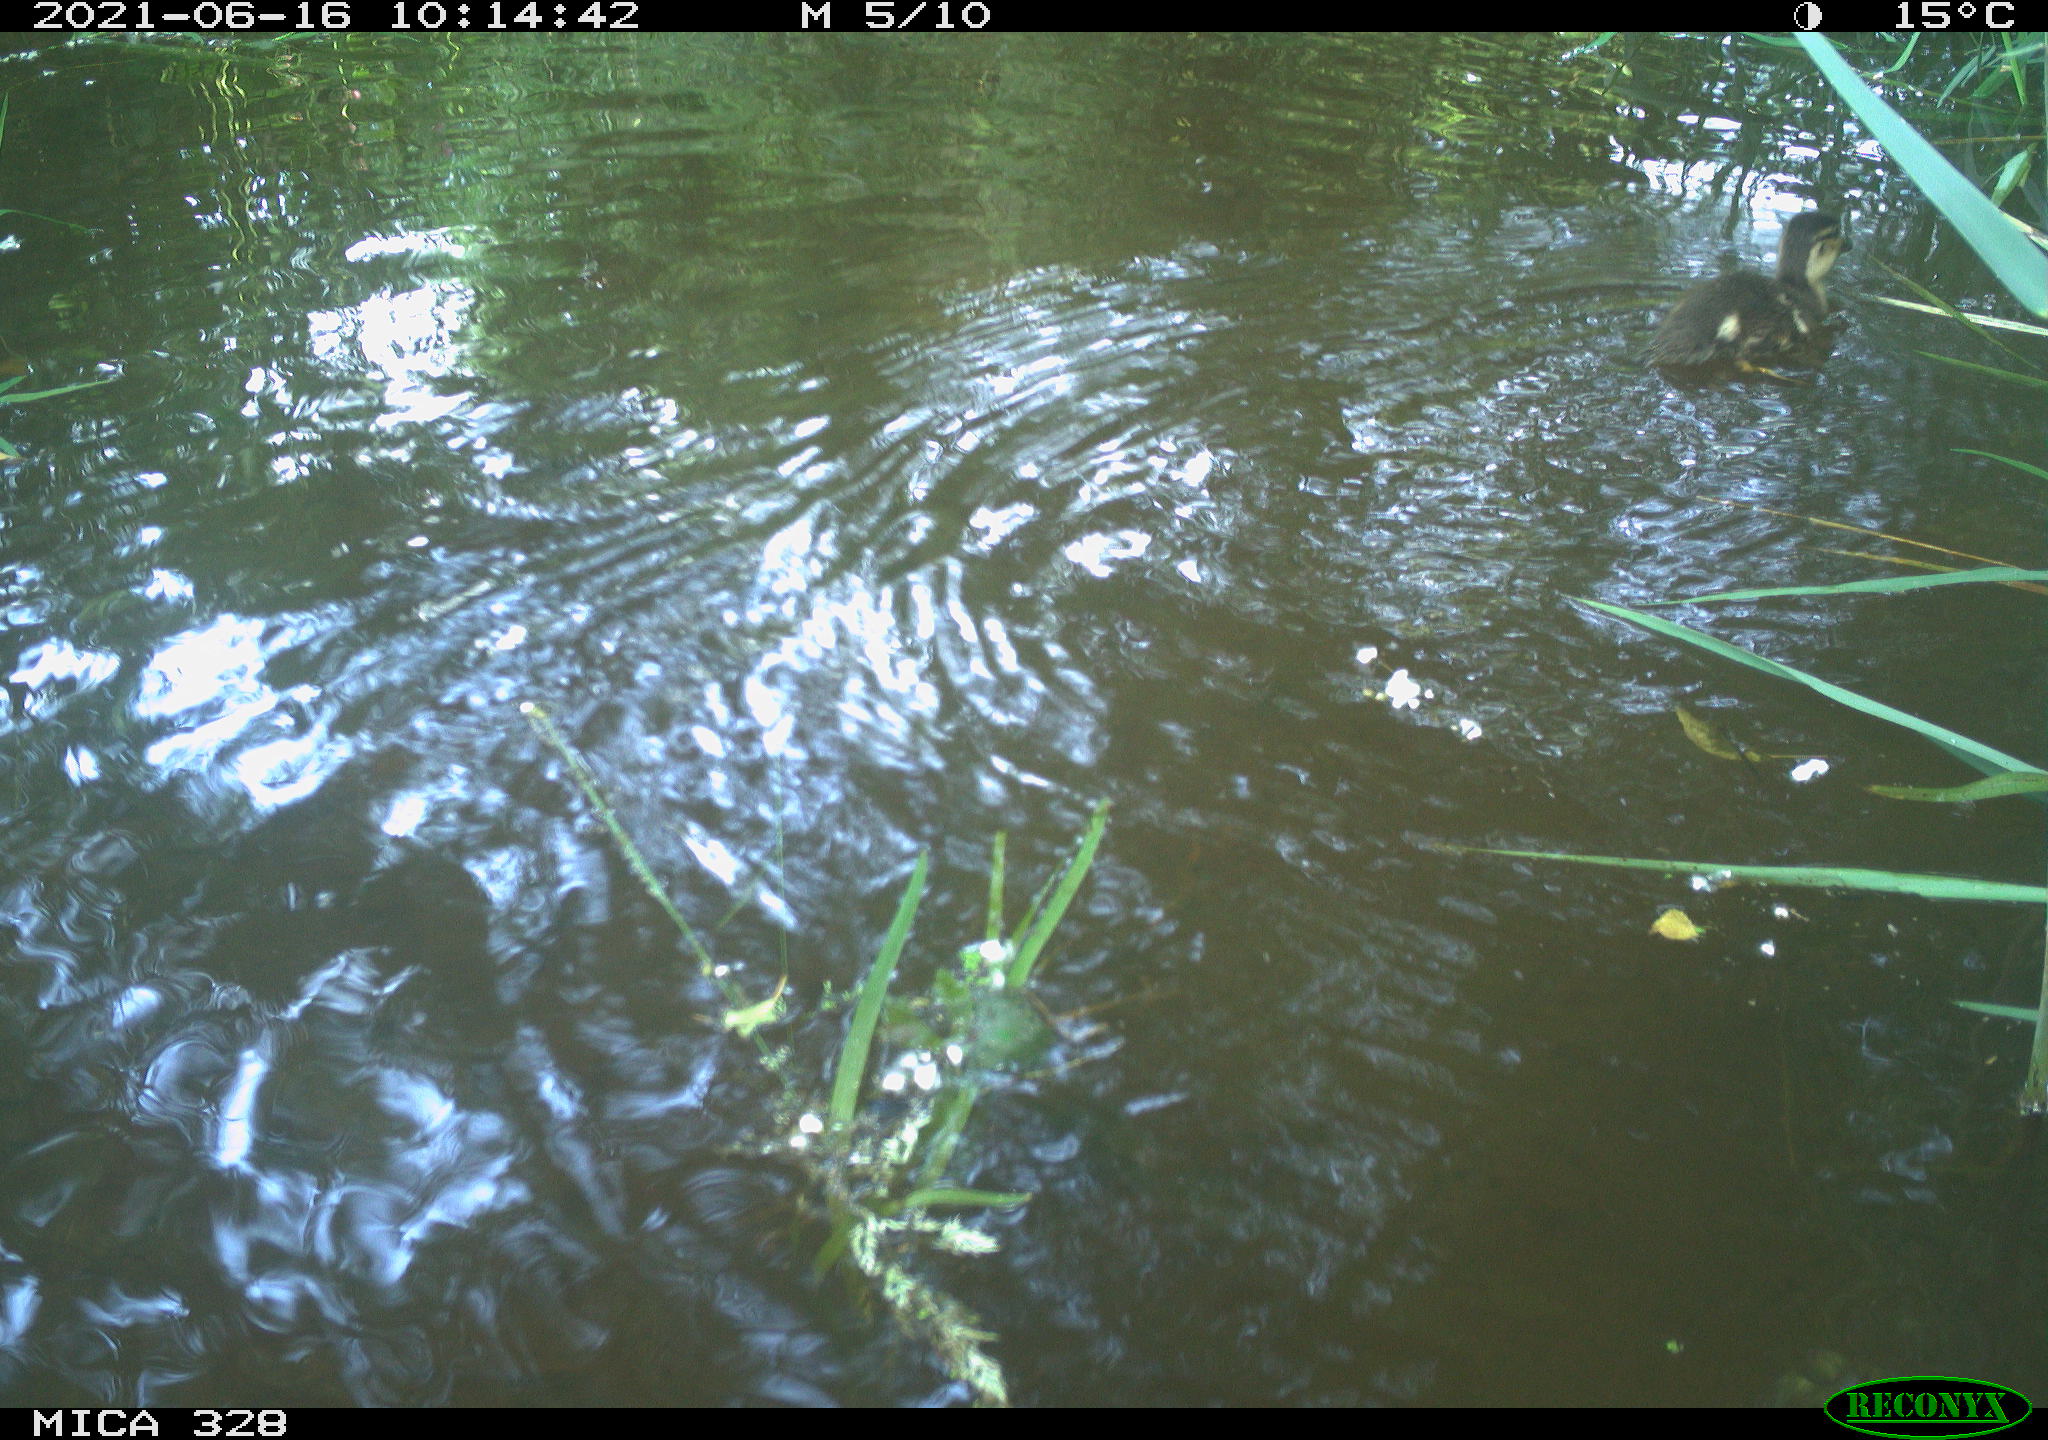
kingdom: Animalia
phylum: Chordata
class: Aves
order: Anseriformes
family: Anatidae
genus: Aix
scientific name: Aix galericulata
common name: Mandarin duck
